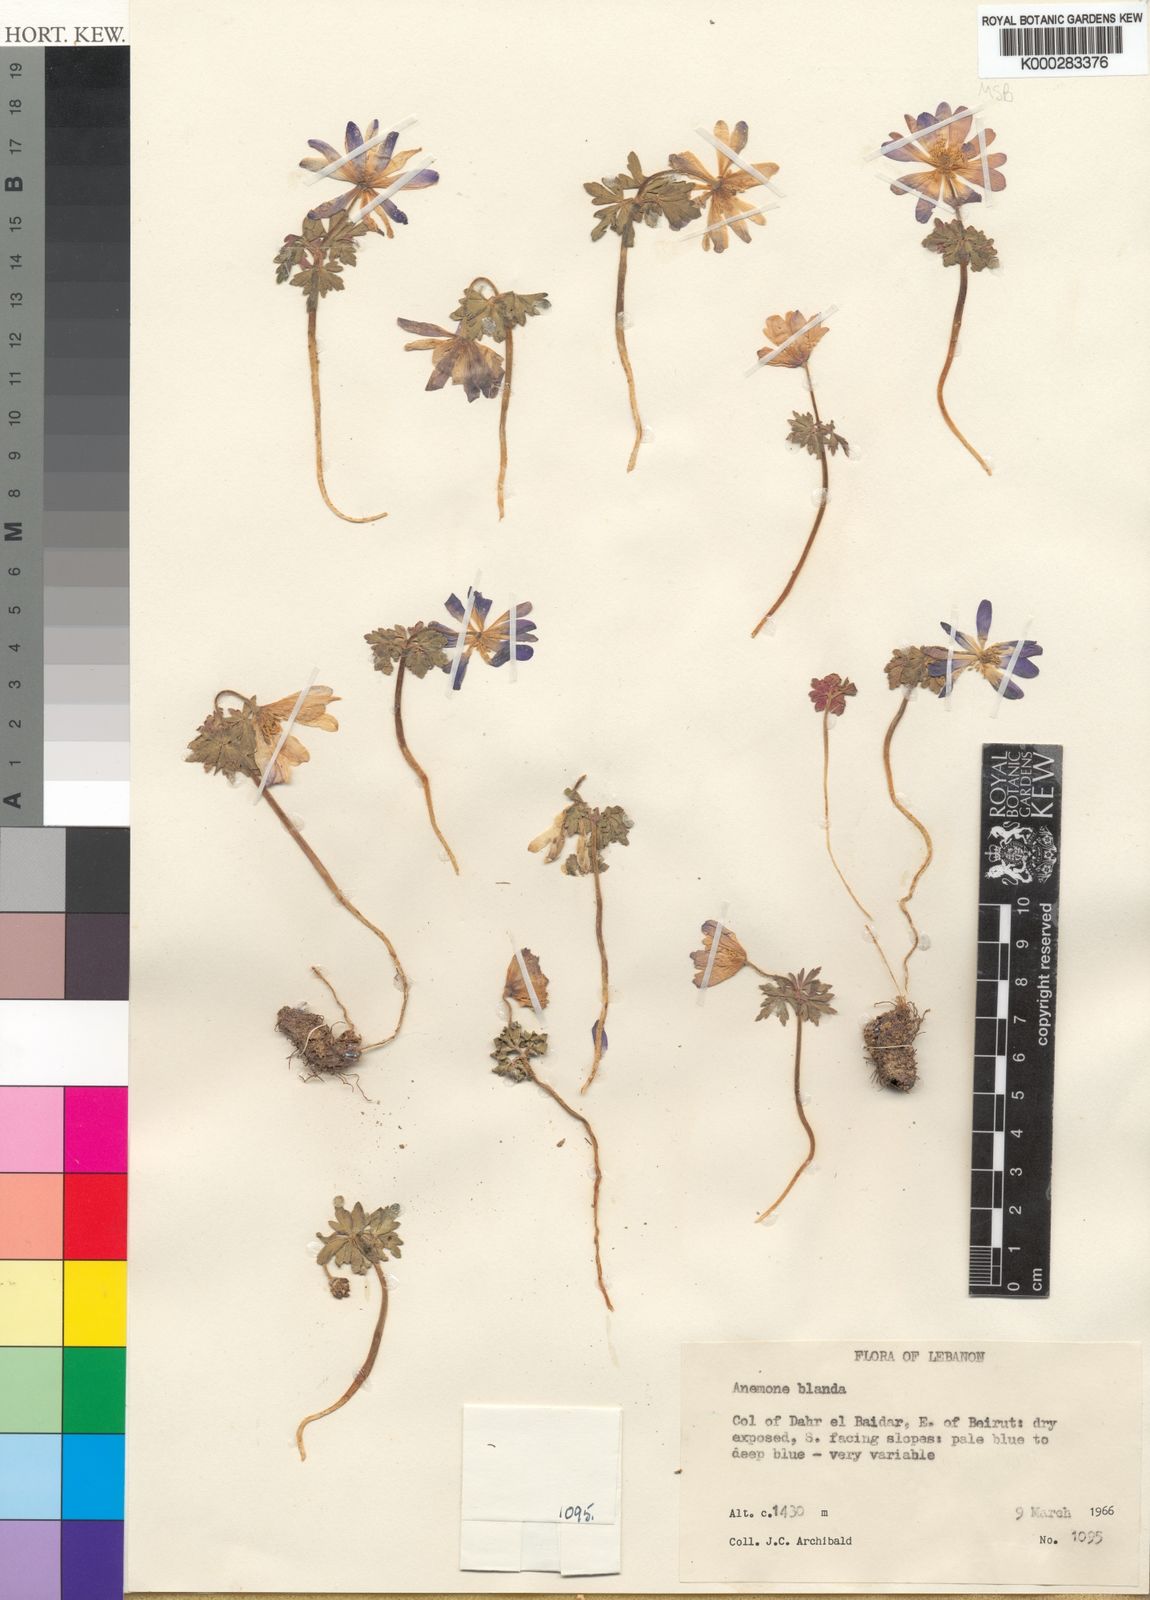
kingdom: Plantae
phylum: Tracheophyta
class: Magnoliopsida
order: Ranunculales
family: Ranunculaceae
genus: Anemone
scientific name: Anemone blanda
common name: Balkan anemone
